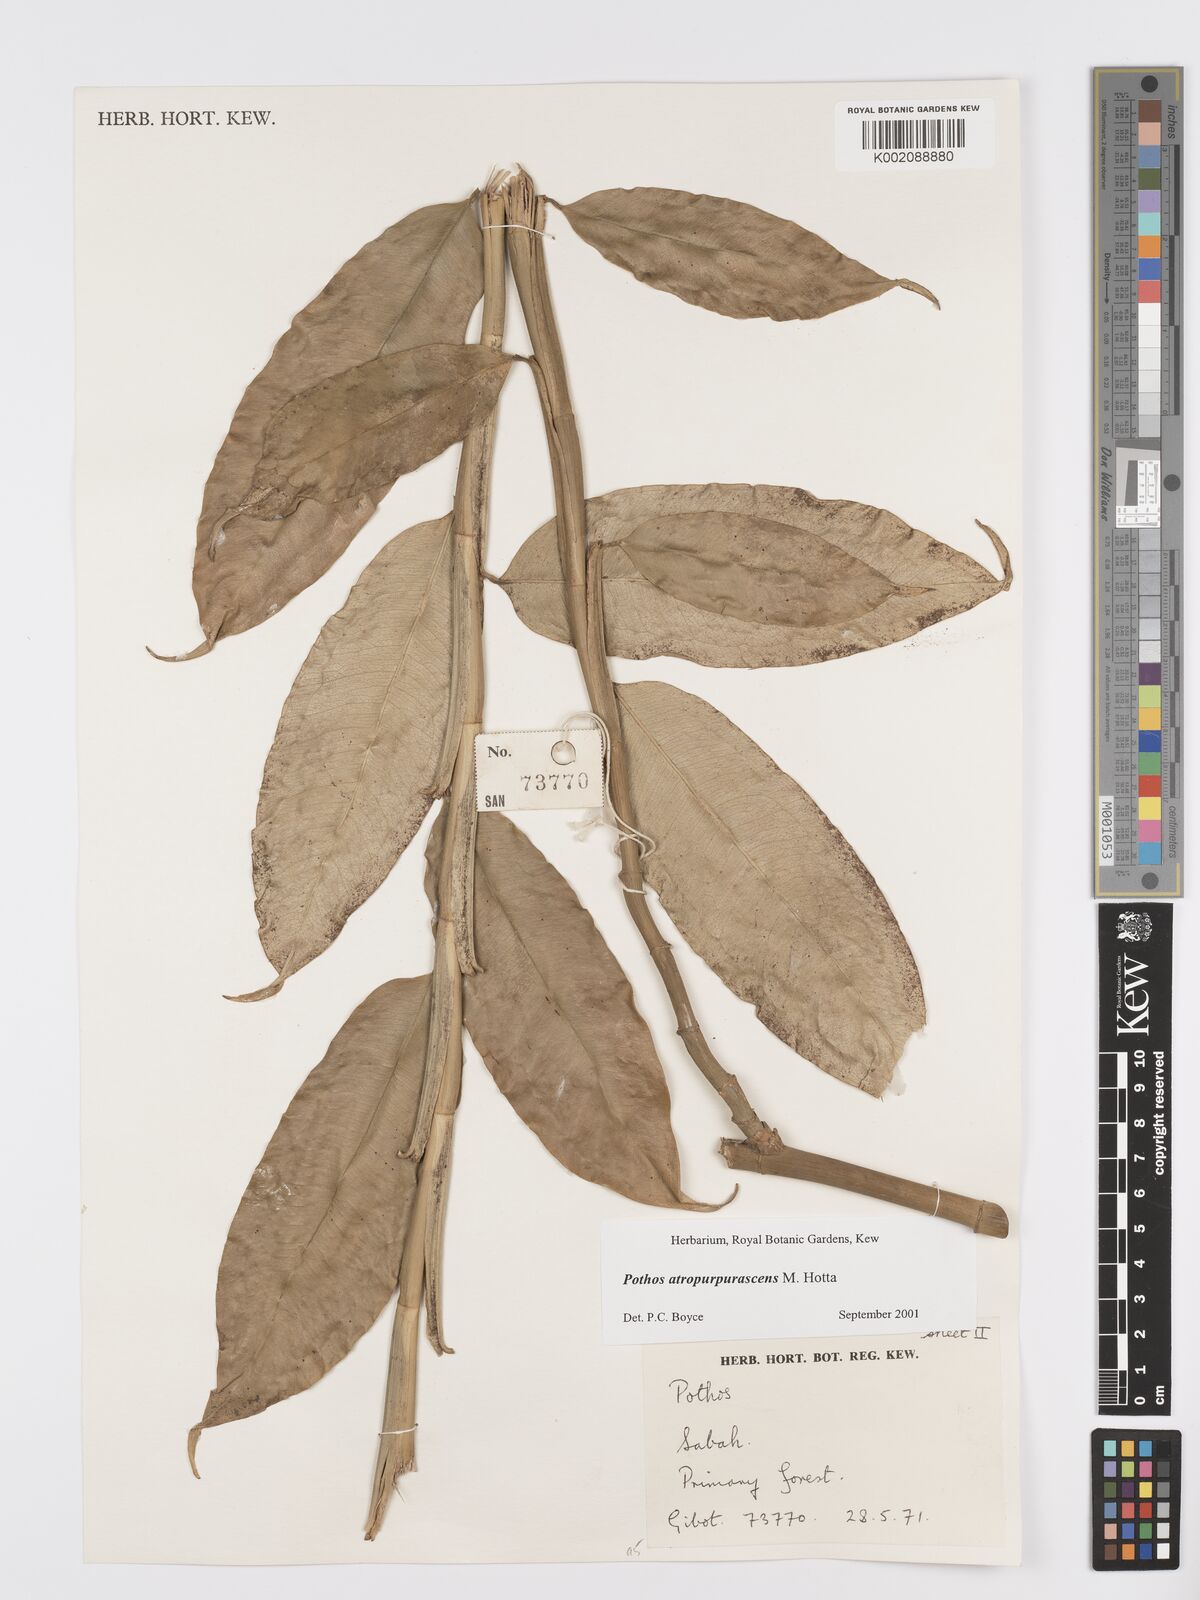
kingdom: Plantae
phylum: Tracheophyta
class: Liliopsida
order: Alismatales
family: Araceae
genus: Pothos
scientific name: Pothos atropurpurascens
